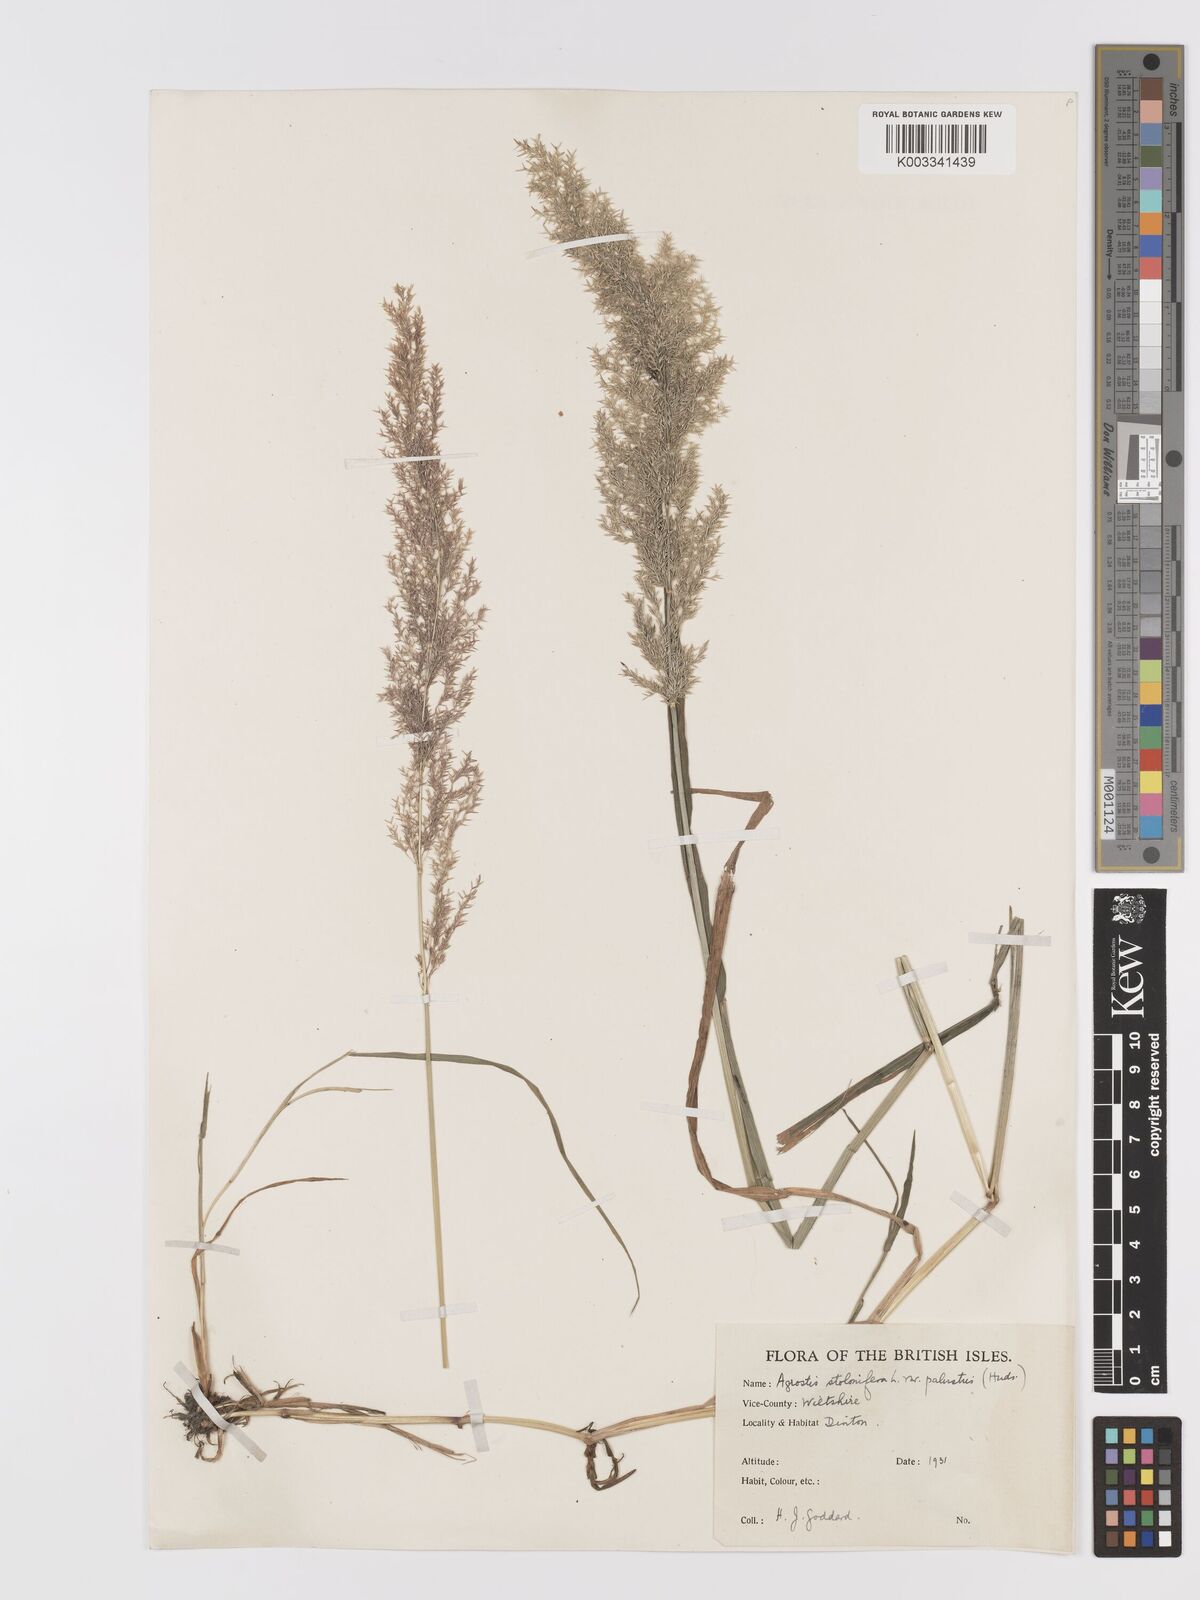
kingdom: Plantae
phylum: Tracheophyta
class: Liliopsida
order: Poales
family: Poaceae
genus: Agrostis
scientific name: Agrostis stolonifera
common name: Creeping bentgrass
